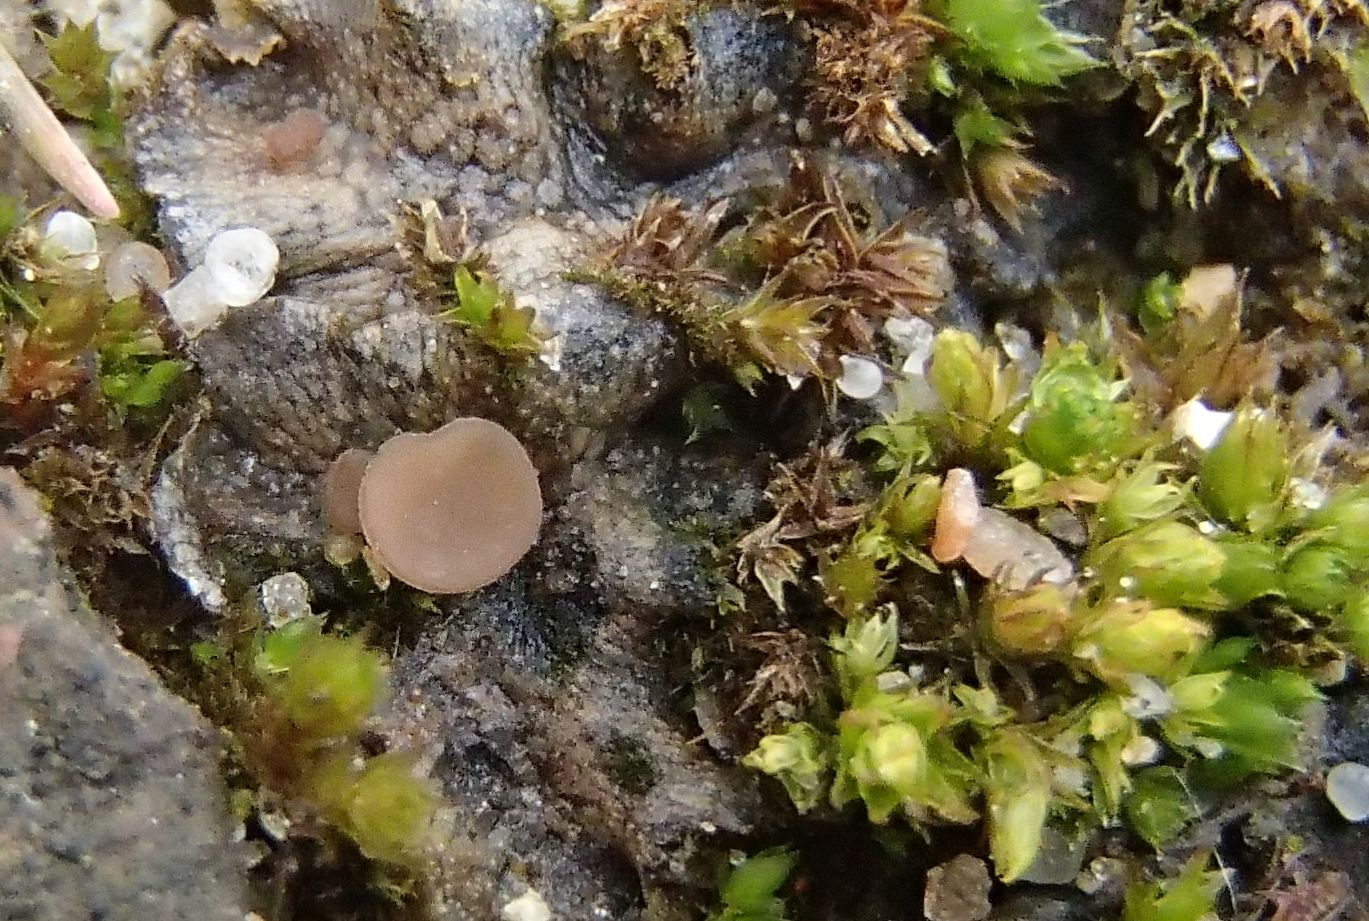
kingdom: Fungi
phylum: Ascomycota
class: Leotiomycetes
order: Helotiales
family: Helotiaceae
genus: Bryoscyphus
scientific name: Bryoscyphus atromarginatus
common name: lungemos-stilkskive
